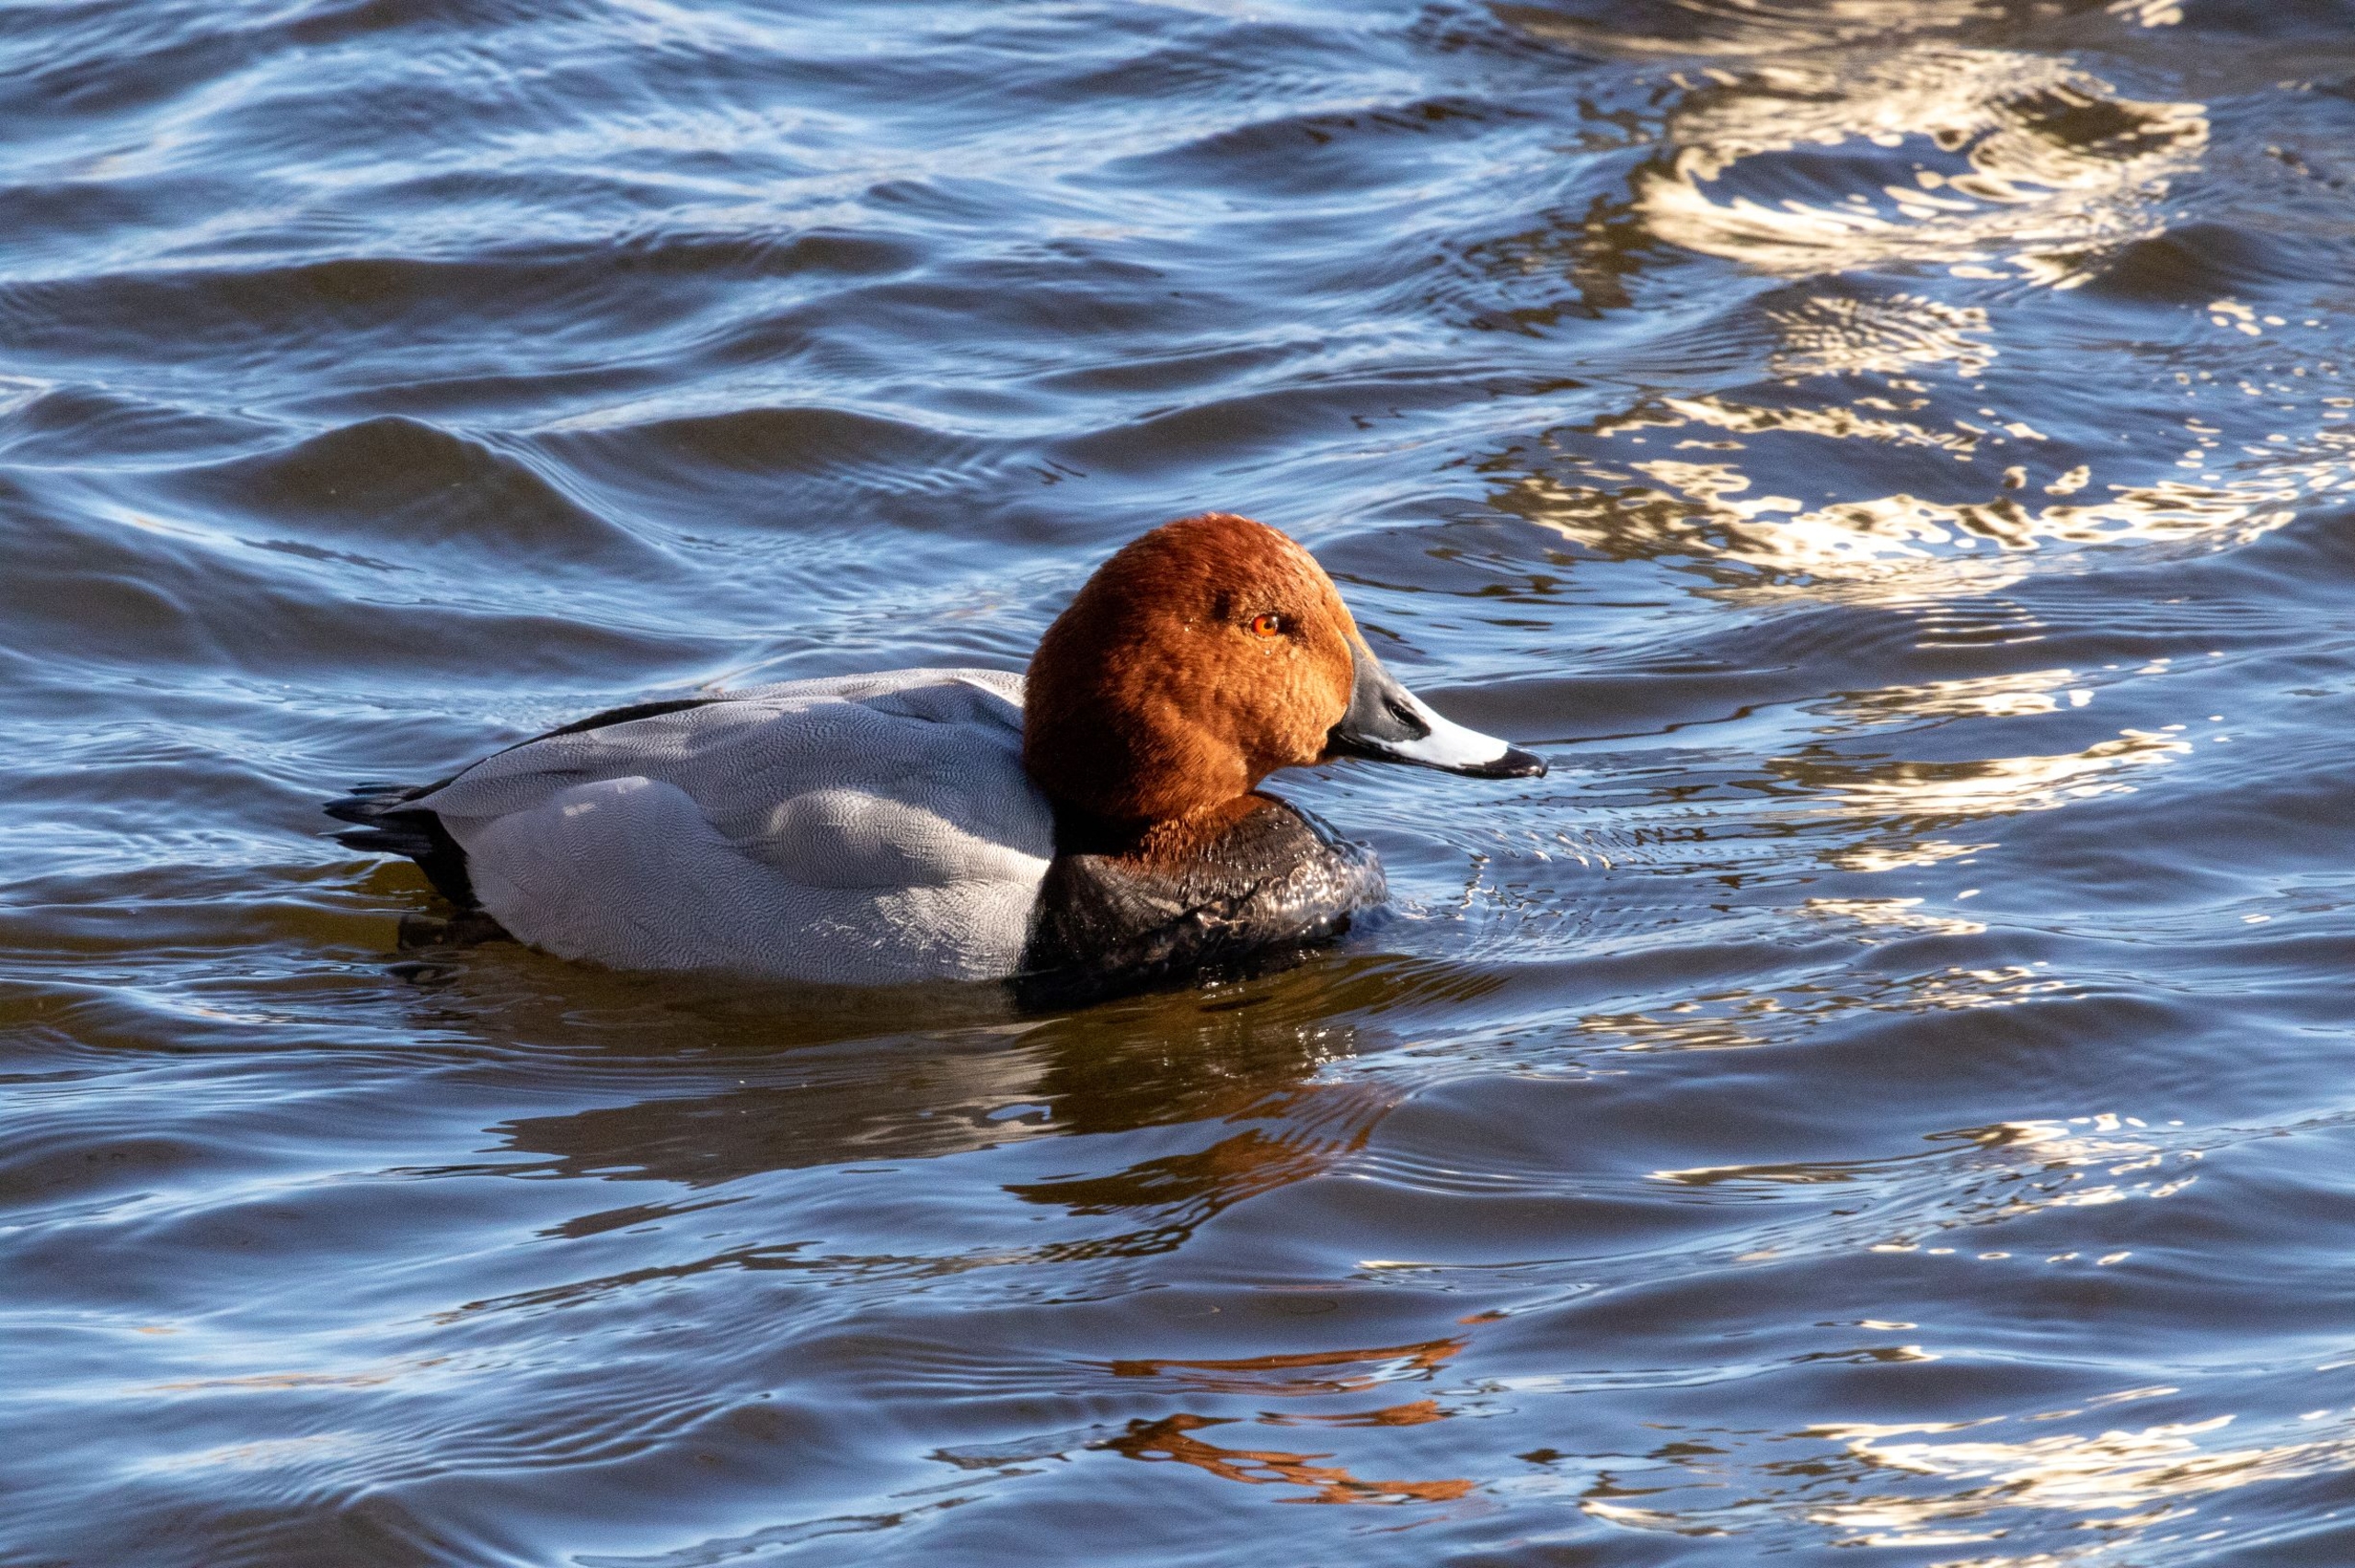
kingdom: Animalia
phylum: Chordata
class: Aves
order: Anseriformes
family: Anatidae
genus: Aythya
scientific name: Aythya ferina
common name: Taffeland
